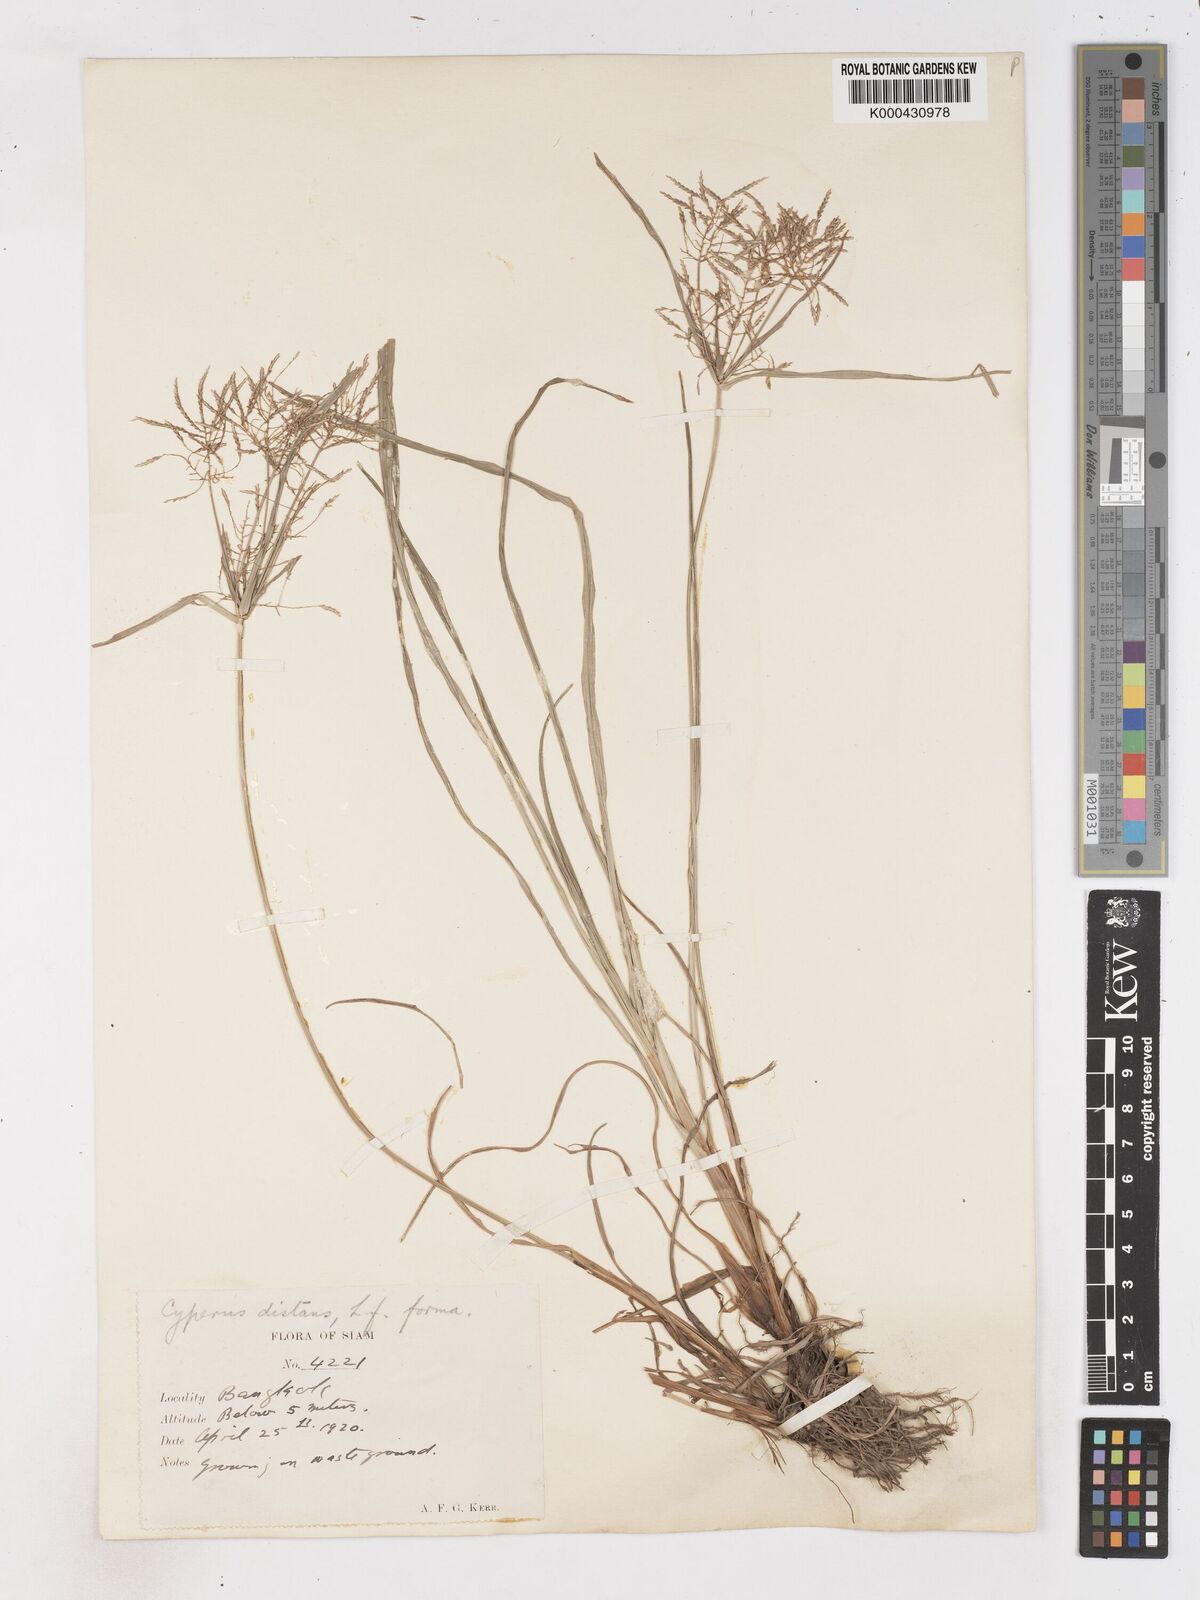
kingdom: Plantae
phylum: Tracheophyta
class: Liliopsida
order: Poales
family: Cyperaceae
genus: Cyperus
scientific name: Cyperus distans
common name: Slender cyperus
